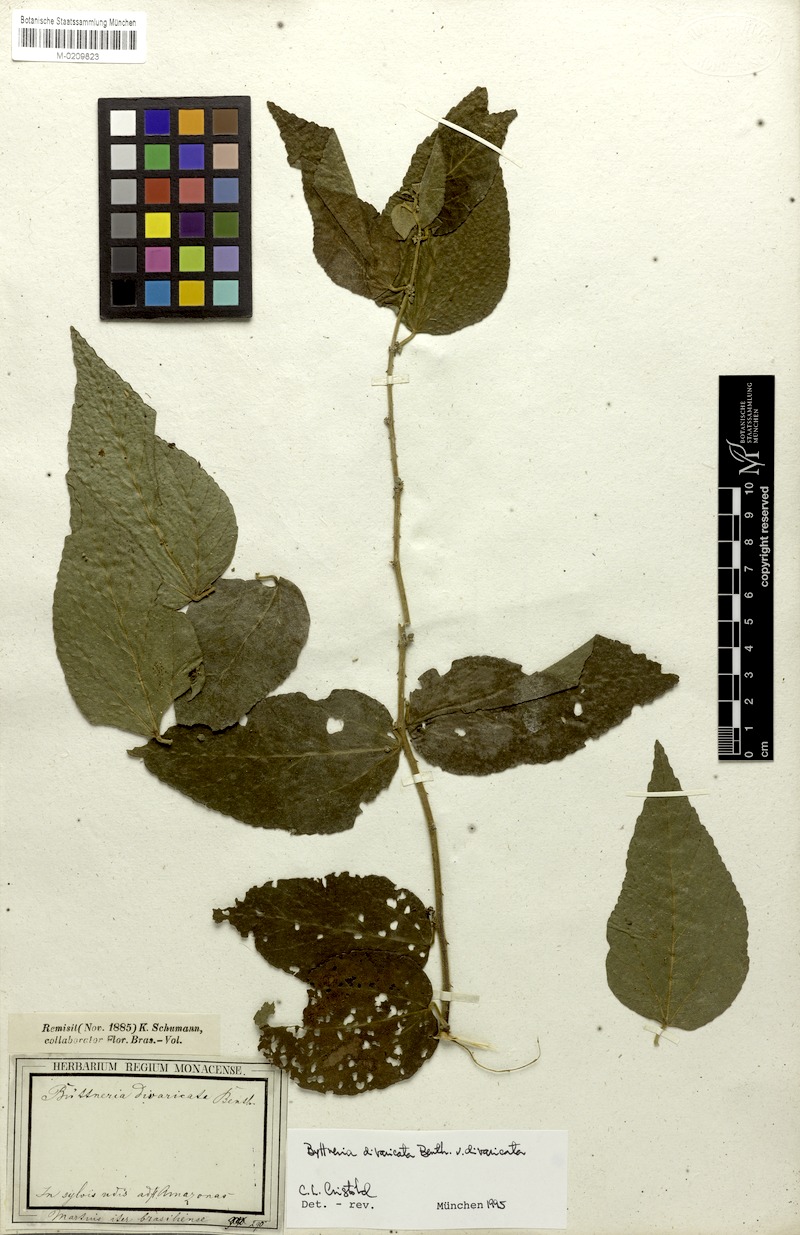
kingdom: Plantae
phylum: Tracheophyta
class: Magnoliopsida
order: Malvales
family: Malvaceae
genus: Byttneria
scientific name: Byttneria divaricata
